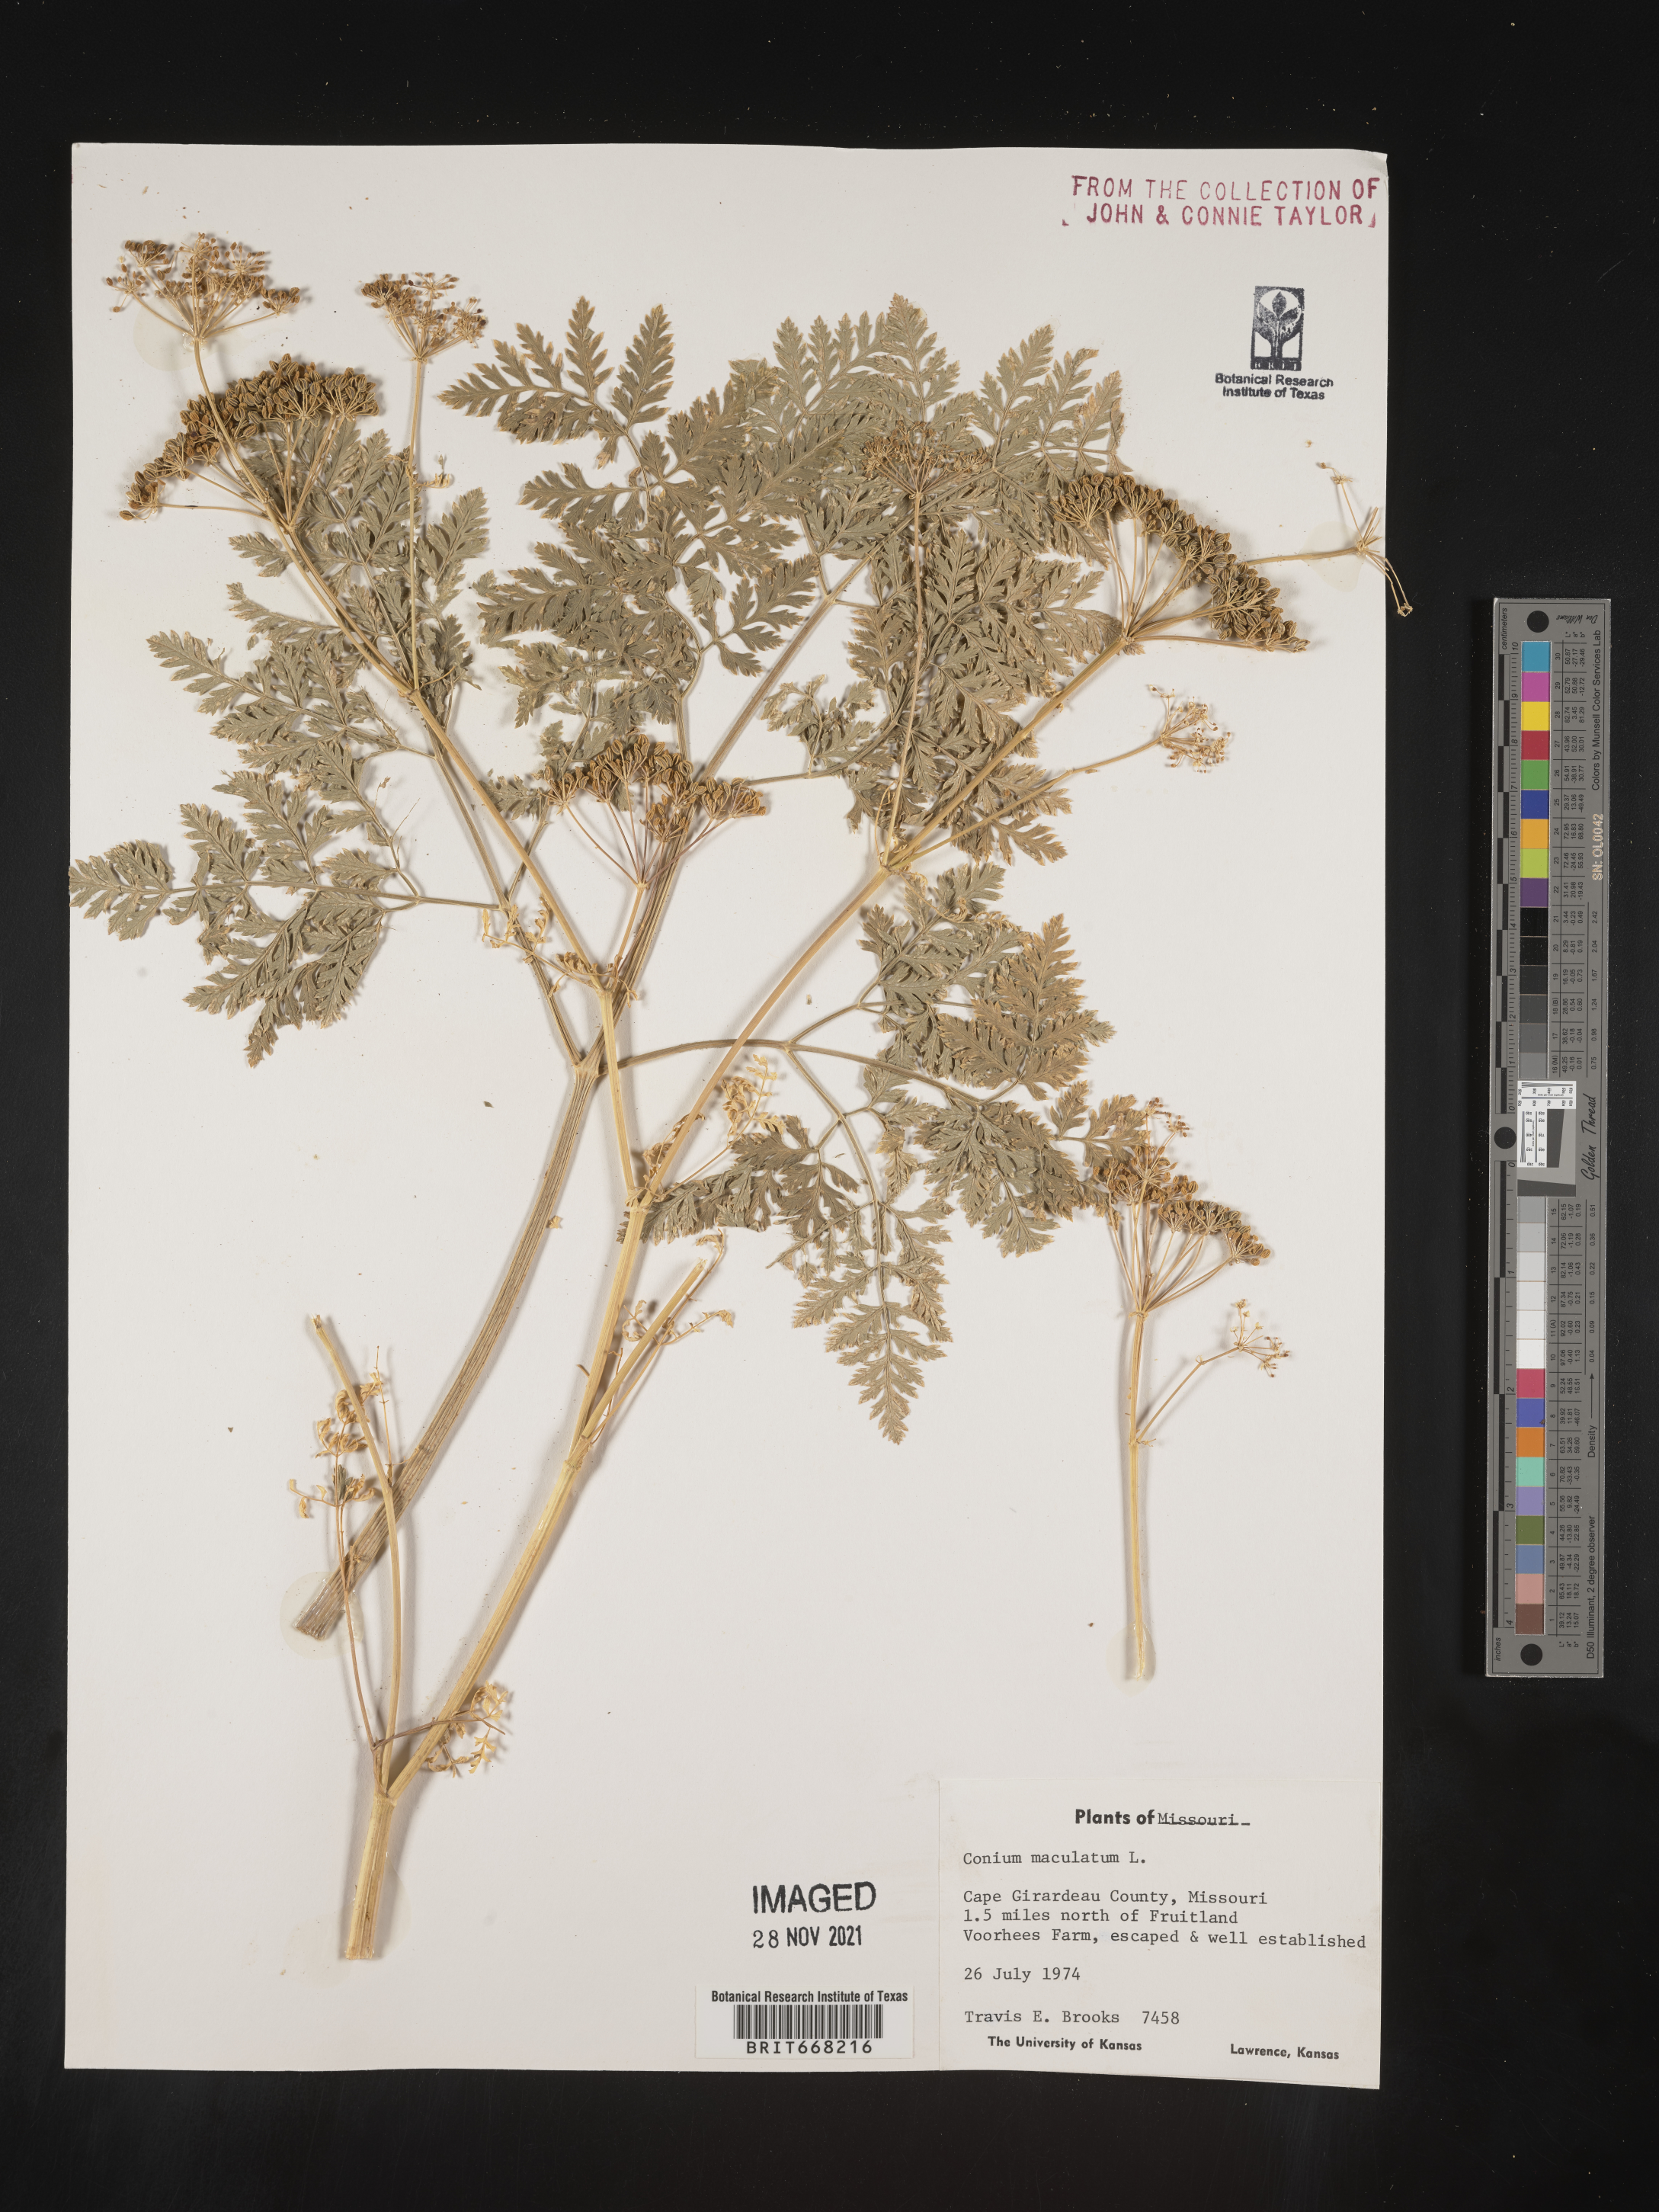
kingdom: Plantae
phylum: Tracheophyta
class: Magnoliopsida
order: Apiales
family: Apiaceae
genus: Conium
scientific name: Conium maculatum
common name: Hemlock
